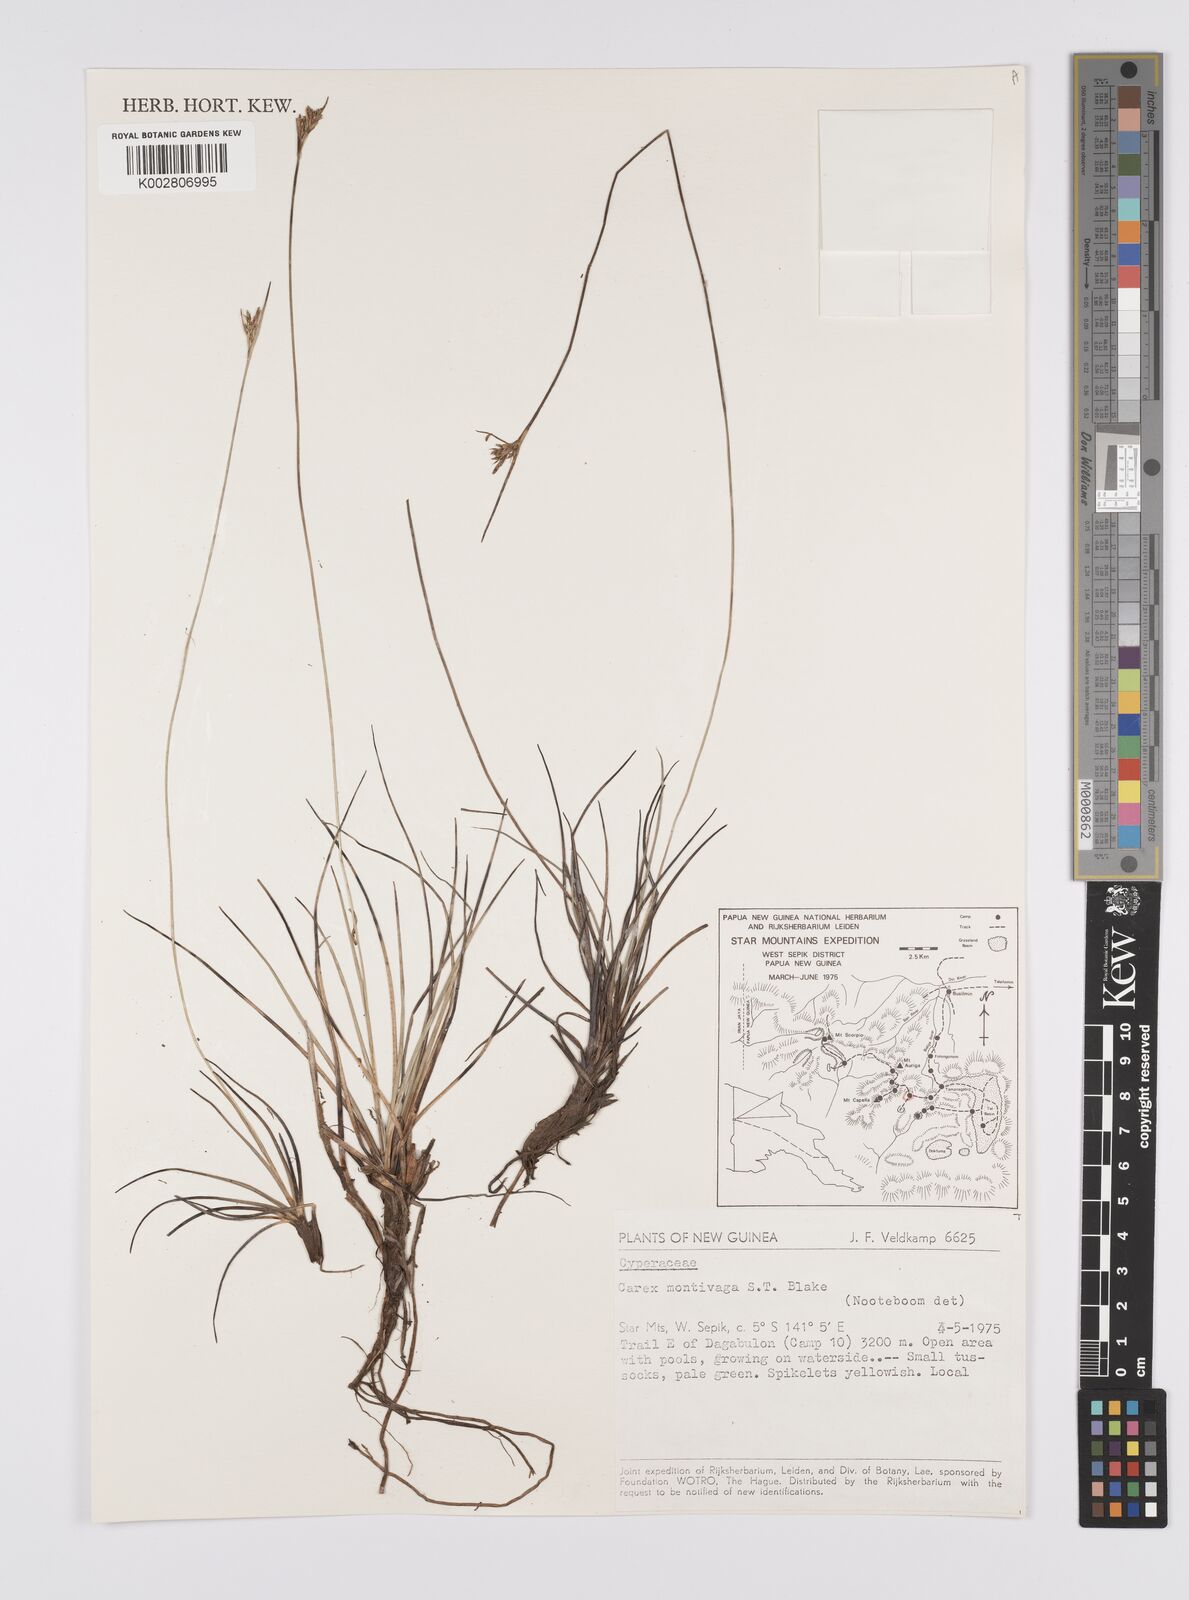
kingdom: Plantae
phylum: Tracheophyta
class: Liliopsida
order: Poales
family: Cyperaceae
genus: Carex
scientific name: Carex breviculmis
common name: Asian shortstem sedge
